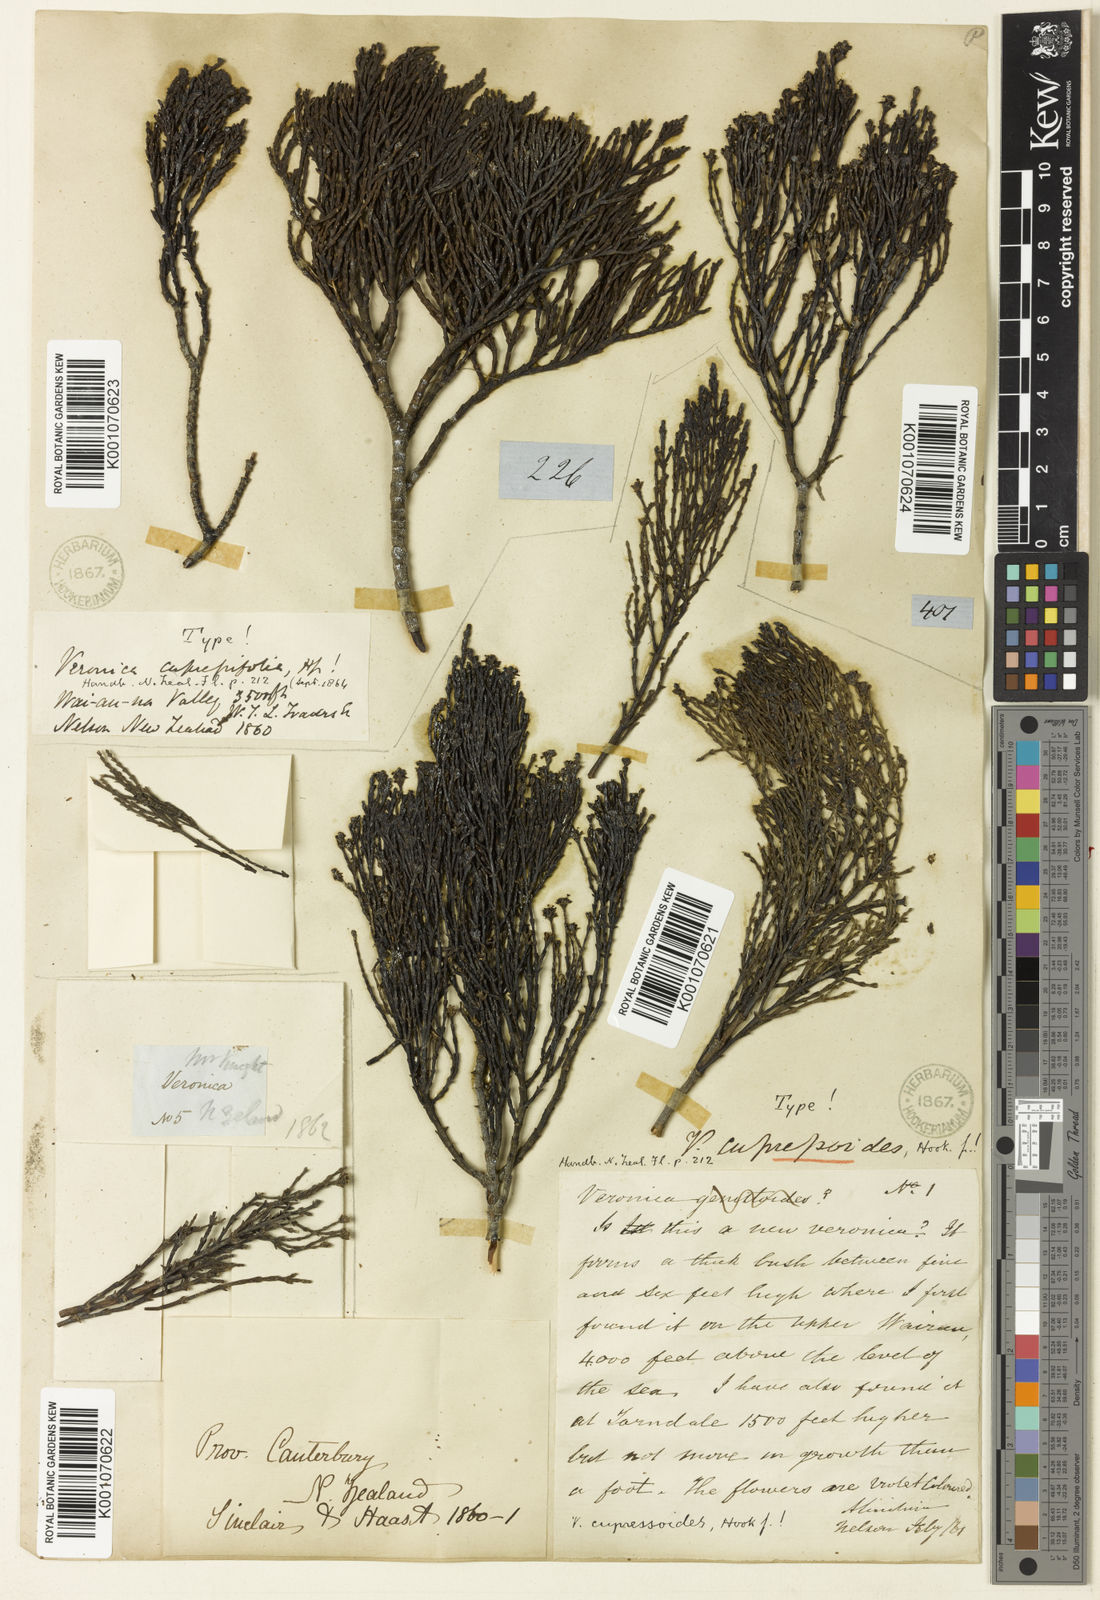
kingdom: Plantae
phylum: Tracheophyta
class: Magnoliopsida
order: Lamiales
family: Plantaginaceae
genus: Veronica
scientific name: Veronica cupressoides
